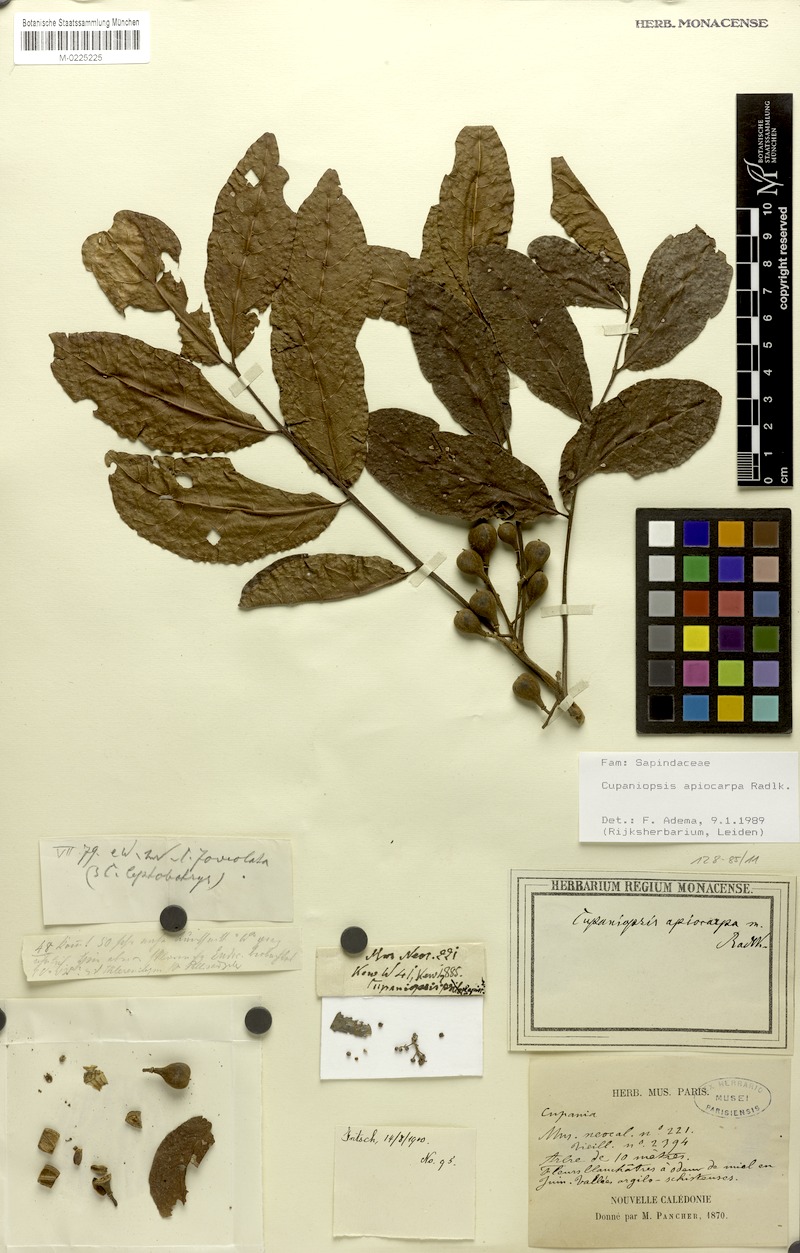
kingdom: Plantae
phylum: Tracheophyta
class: Magnoliopsida
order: Sapindales
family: Sapindaceae
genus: Cupaniopsis
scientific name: Cupaniopsis apiocarpa
